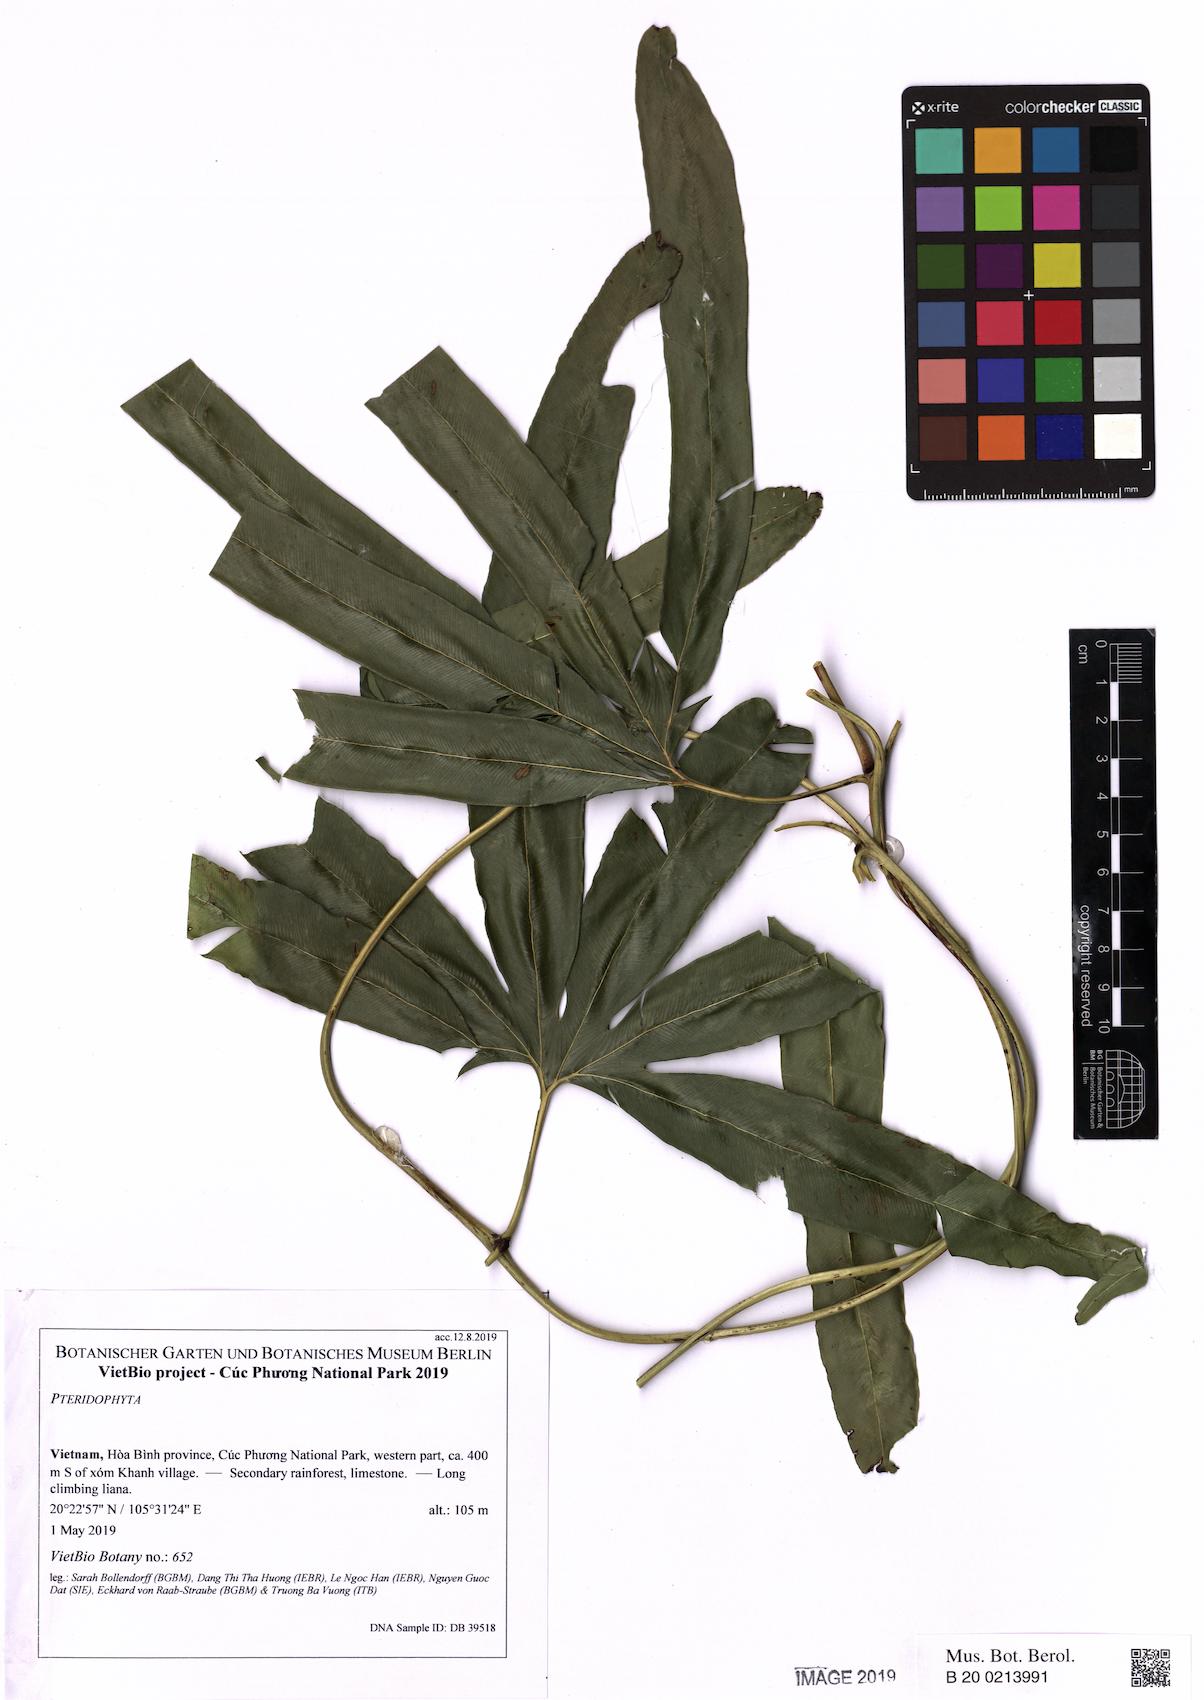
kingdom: Plantae
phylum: Tracheophyta
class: Polypodiopsida
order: Schizaeales
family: Lygodiaceae
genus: Lygodium
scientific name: Lygodium circinnatum
